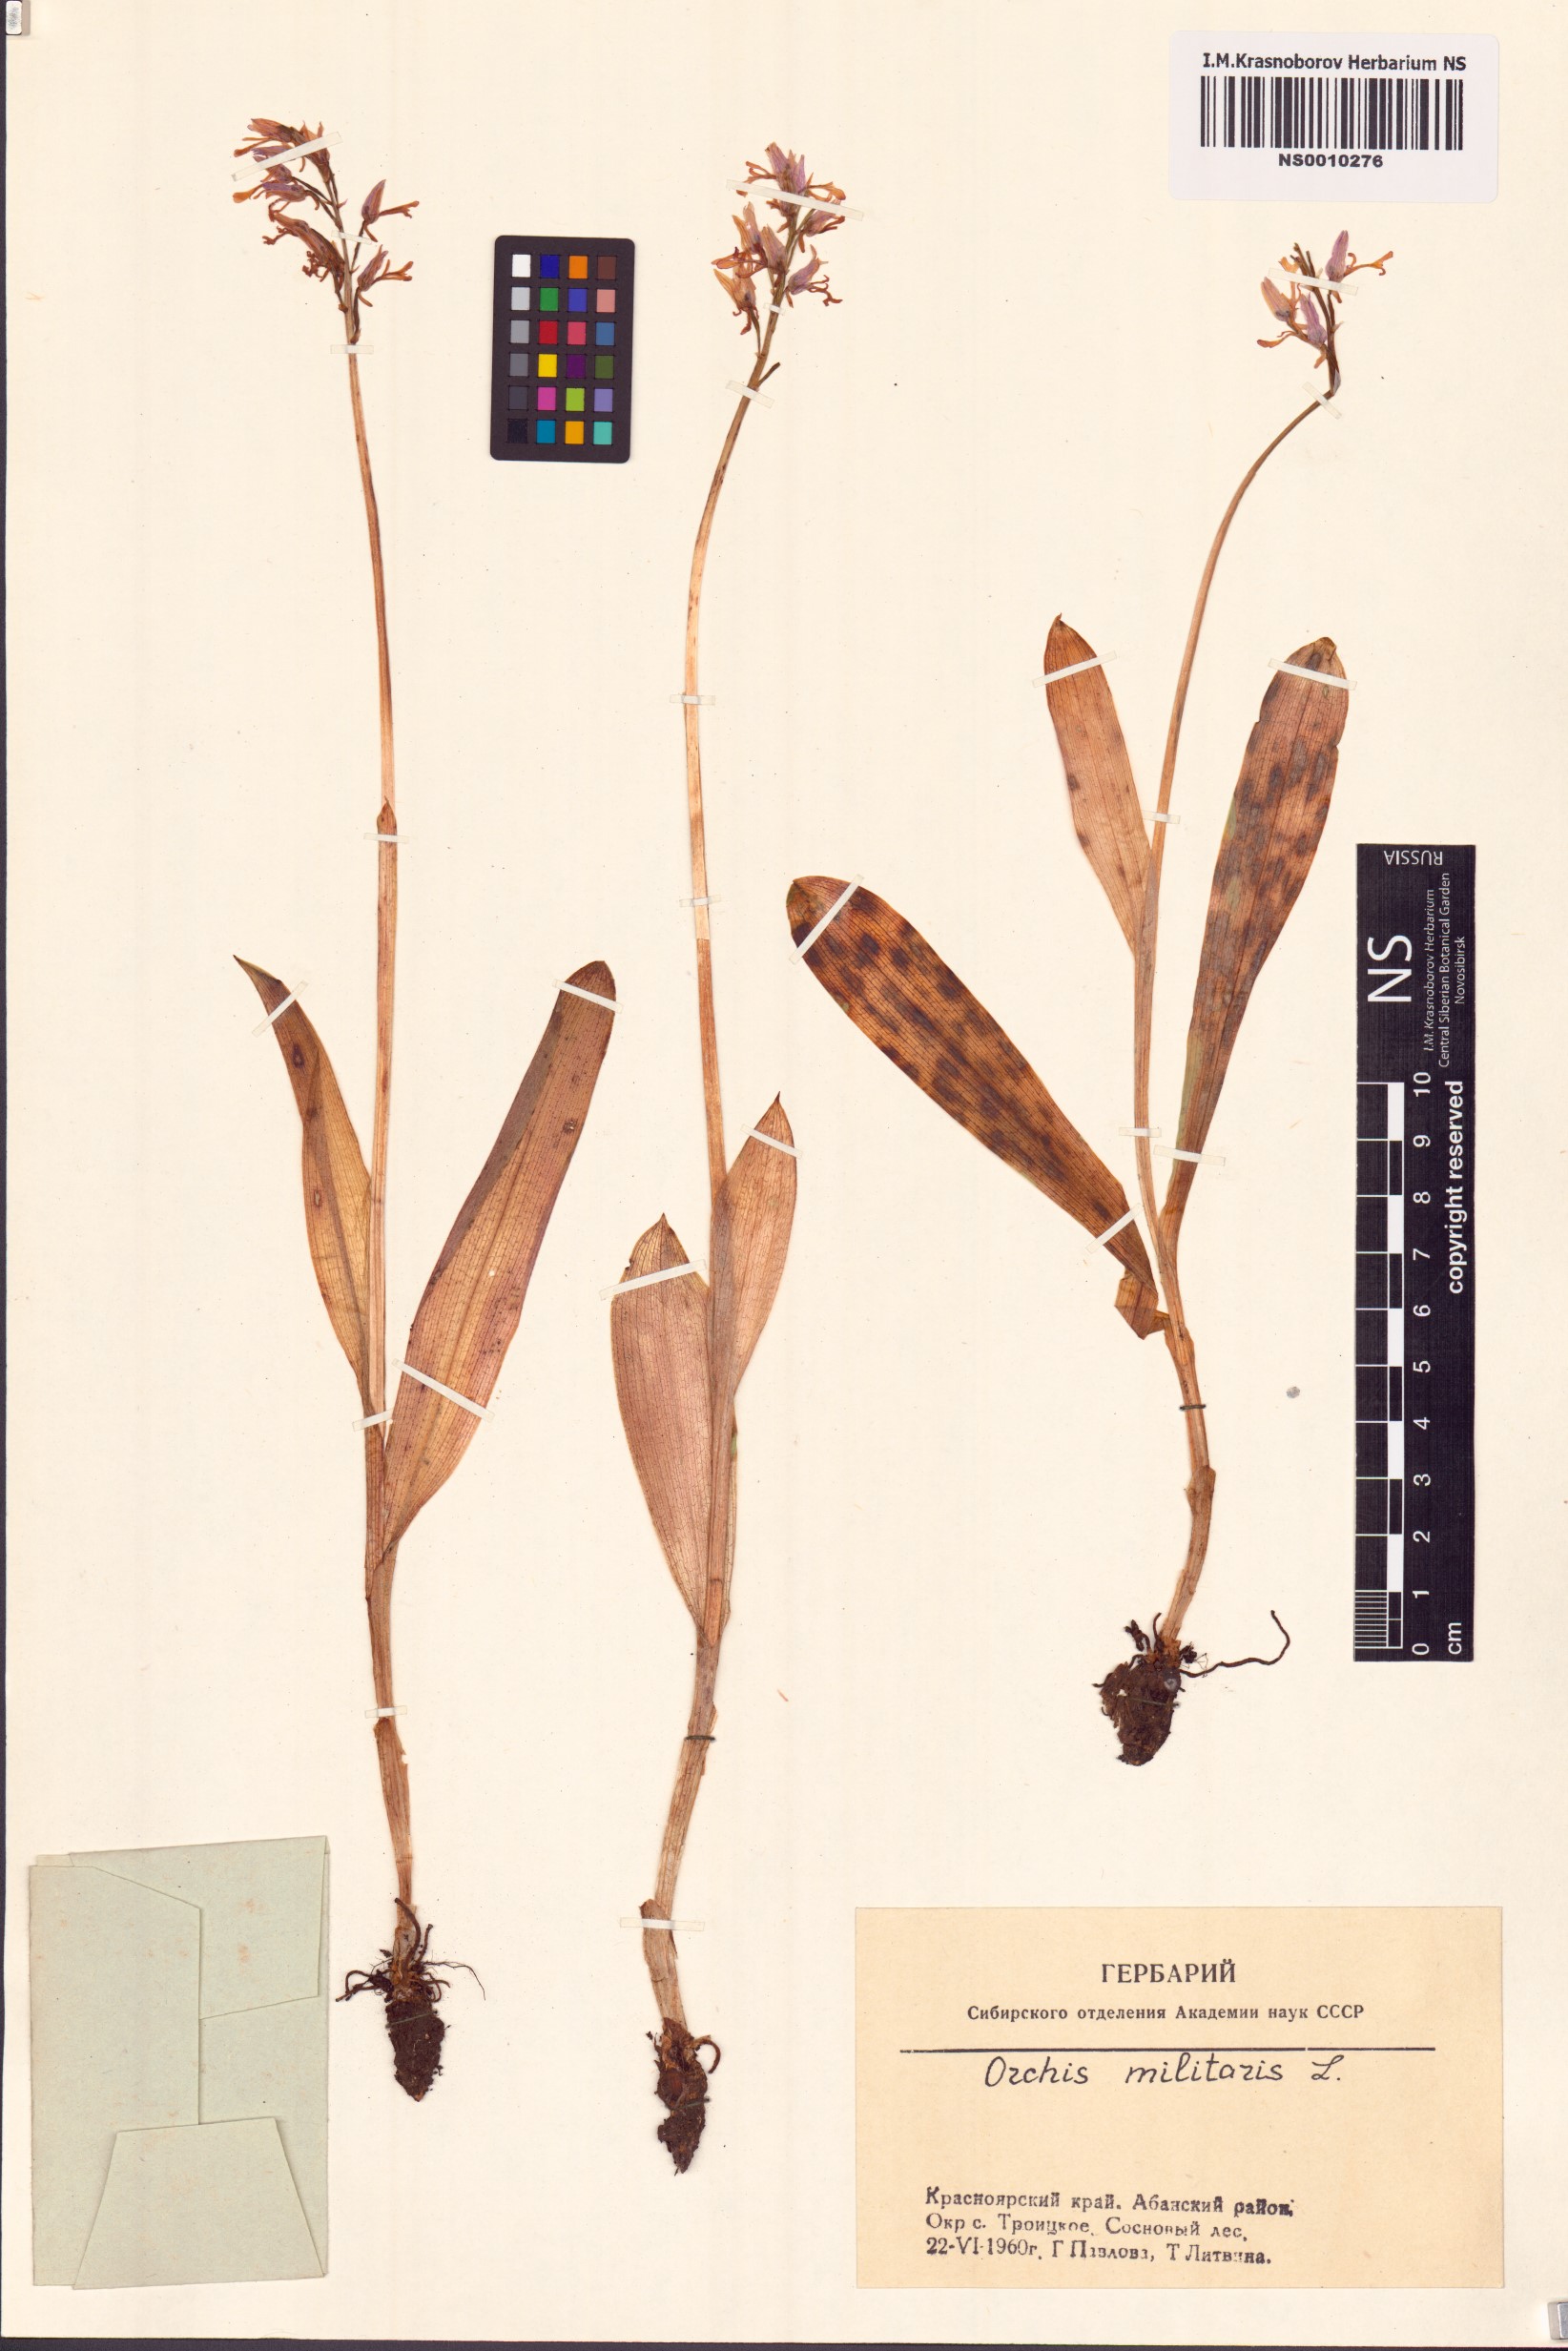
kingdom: Plantae
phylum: Tracheophyta
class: Liliopsida
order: Asparagales
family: Orchidaceae
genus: Orchis
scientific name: Orchis militaris
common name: Military orchid
